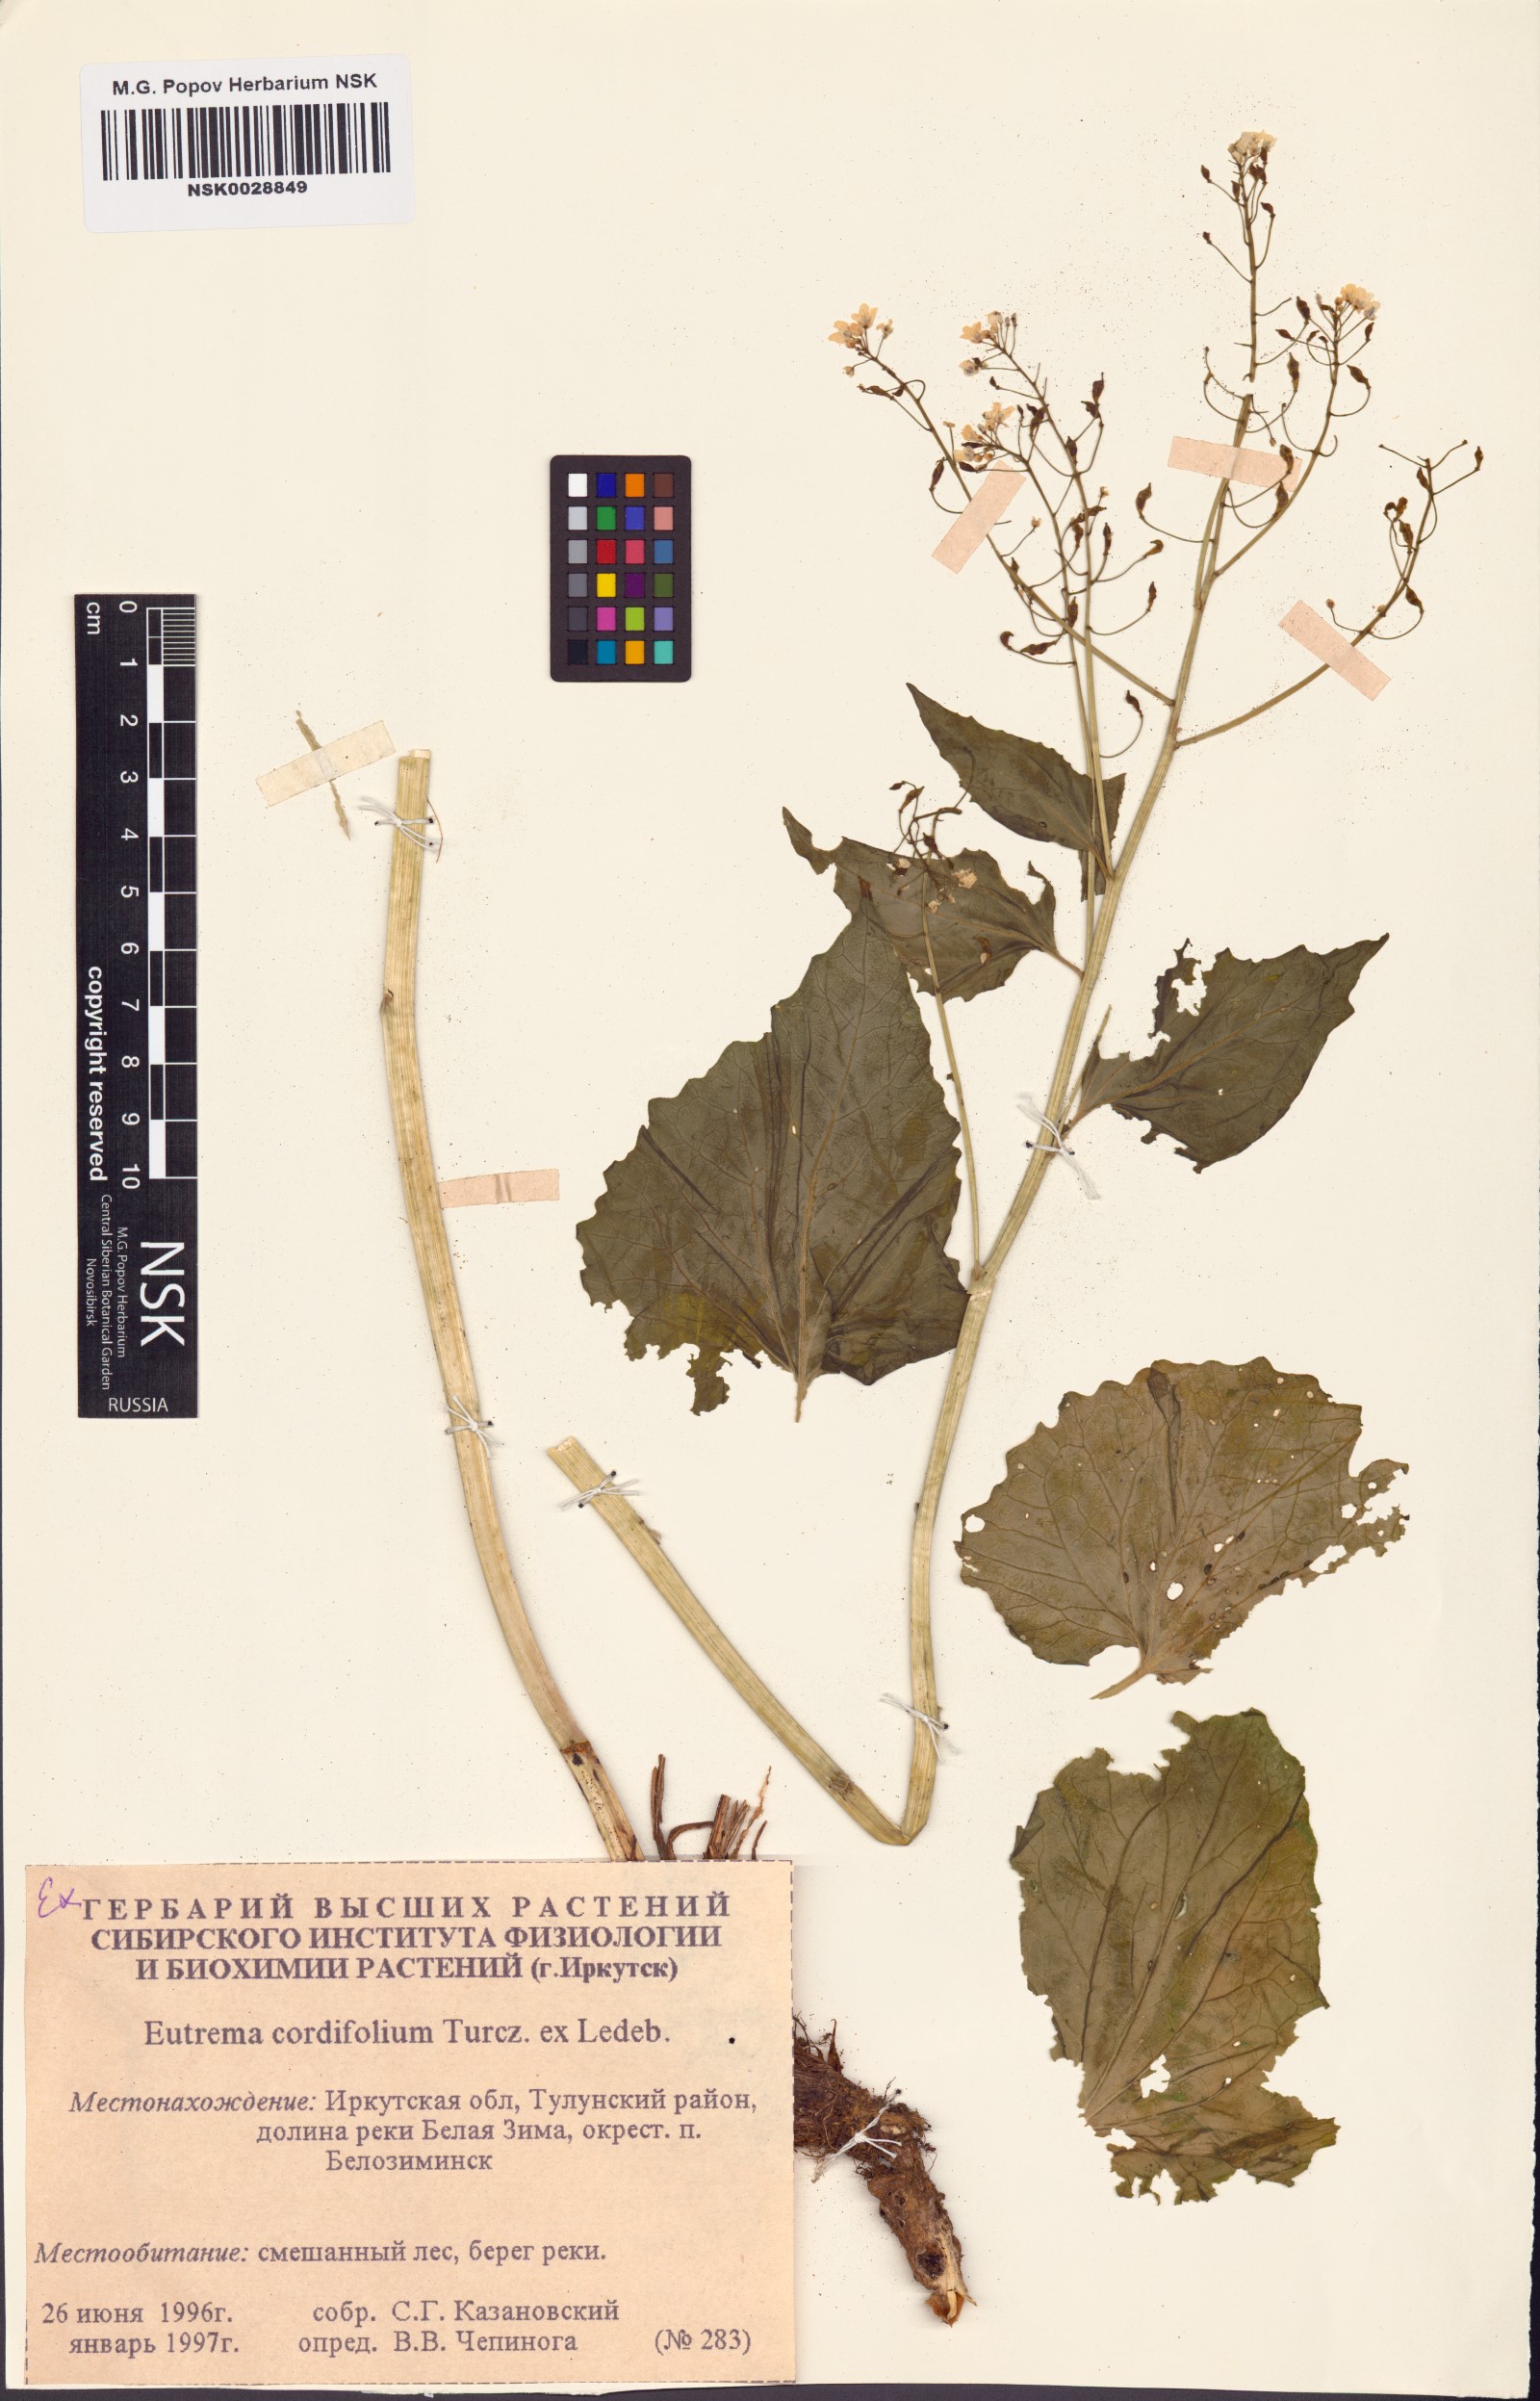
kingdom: Plantae
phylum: Tracheophyta
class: Magnoliopsida
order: Brassicales
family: Brassicaceae
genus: Eutrema
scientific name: Eutrema cordifolium
